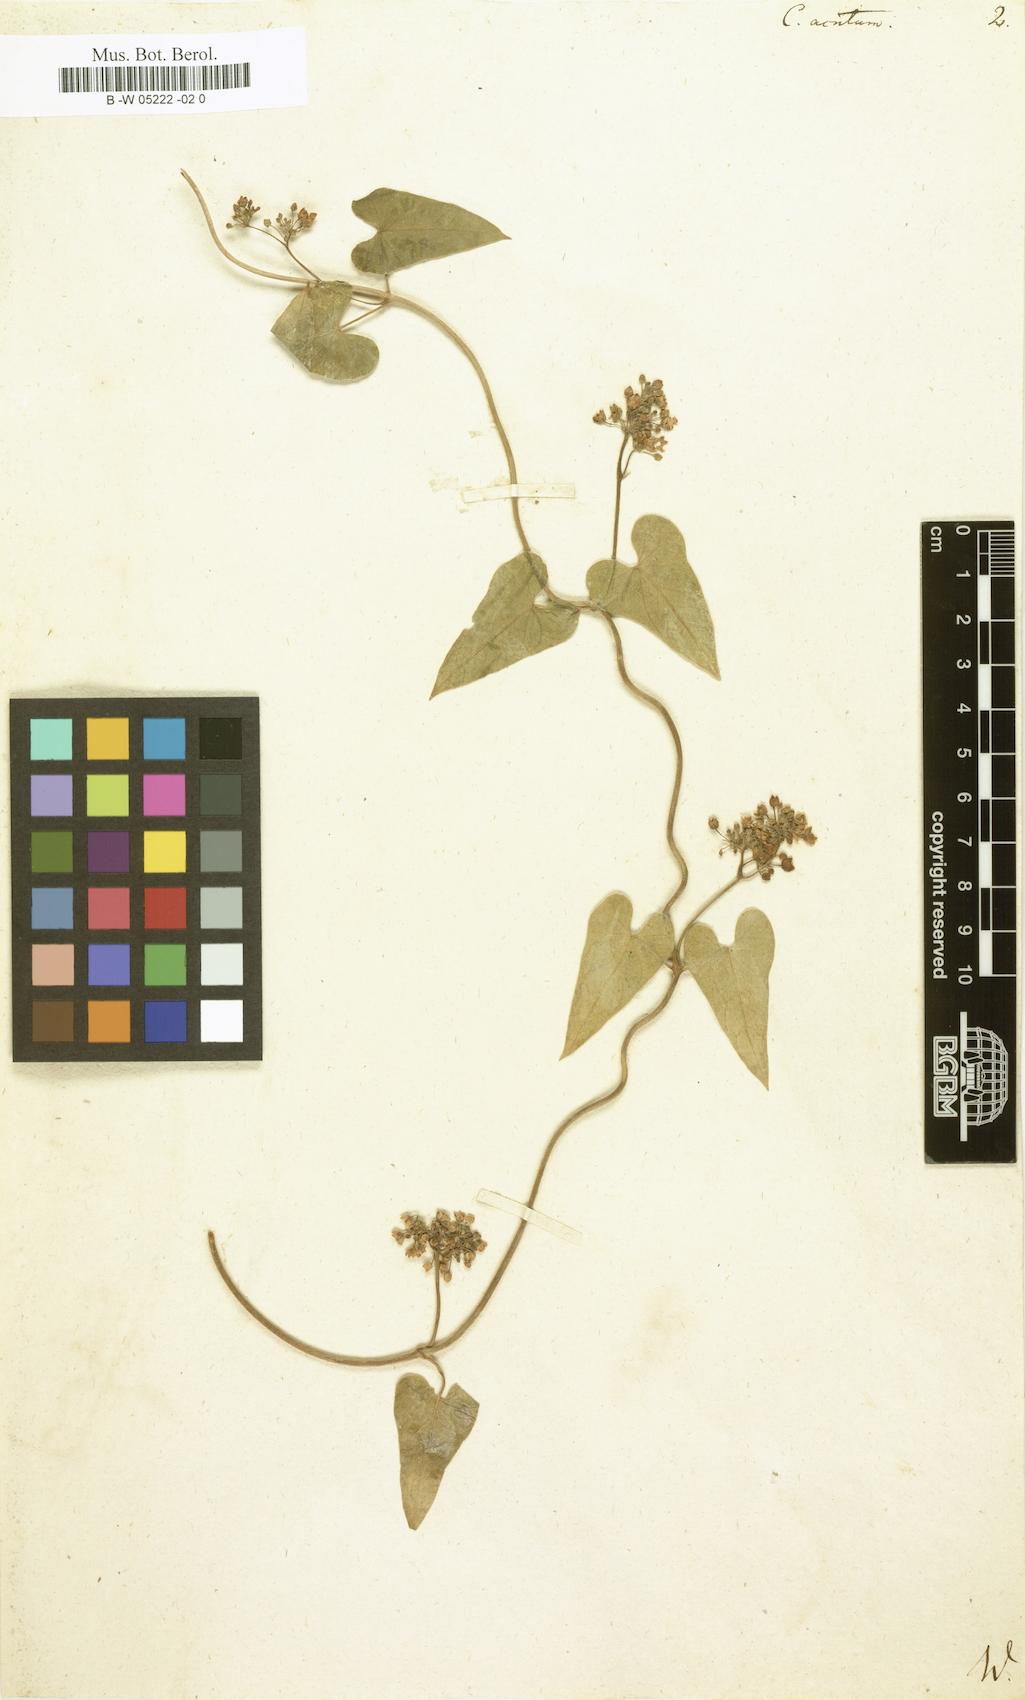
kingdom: Plantae
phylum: Tracheophyta
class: Magnoliopsida
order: Gentianales
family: Apocynaceae
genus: Cynanchum
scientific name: Cynanchum acutum
